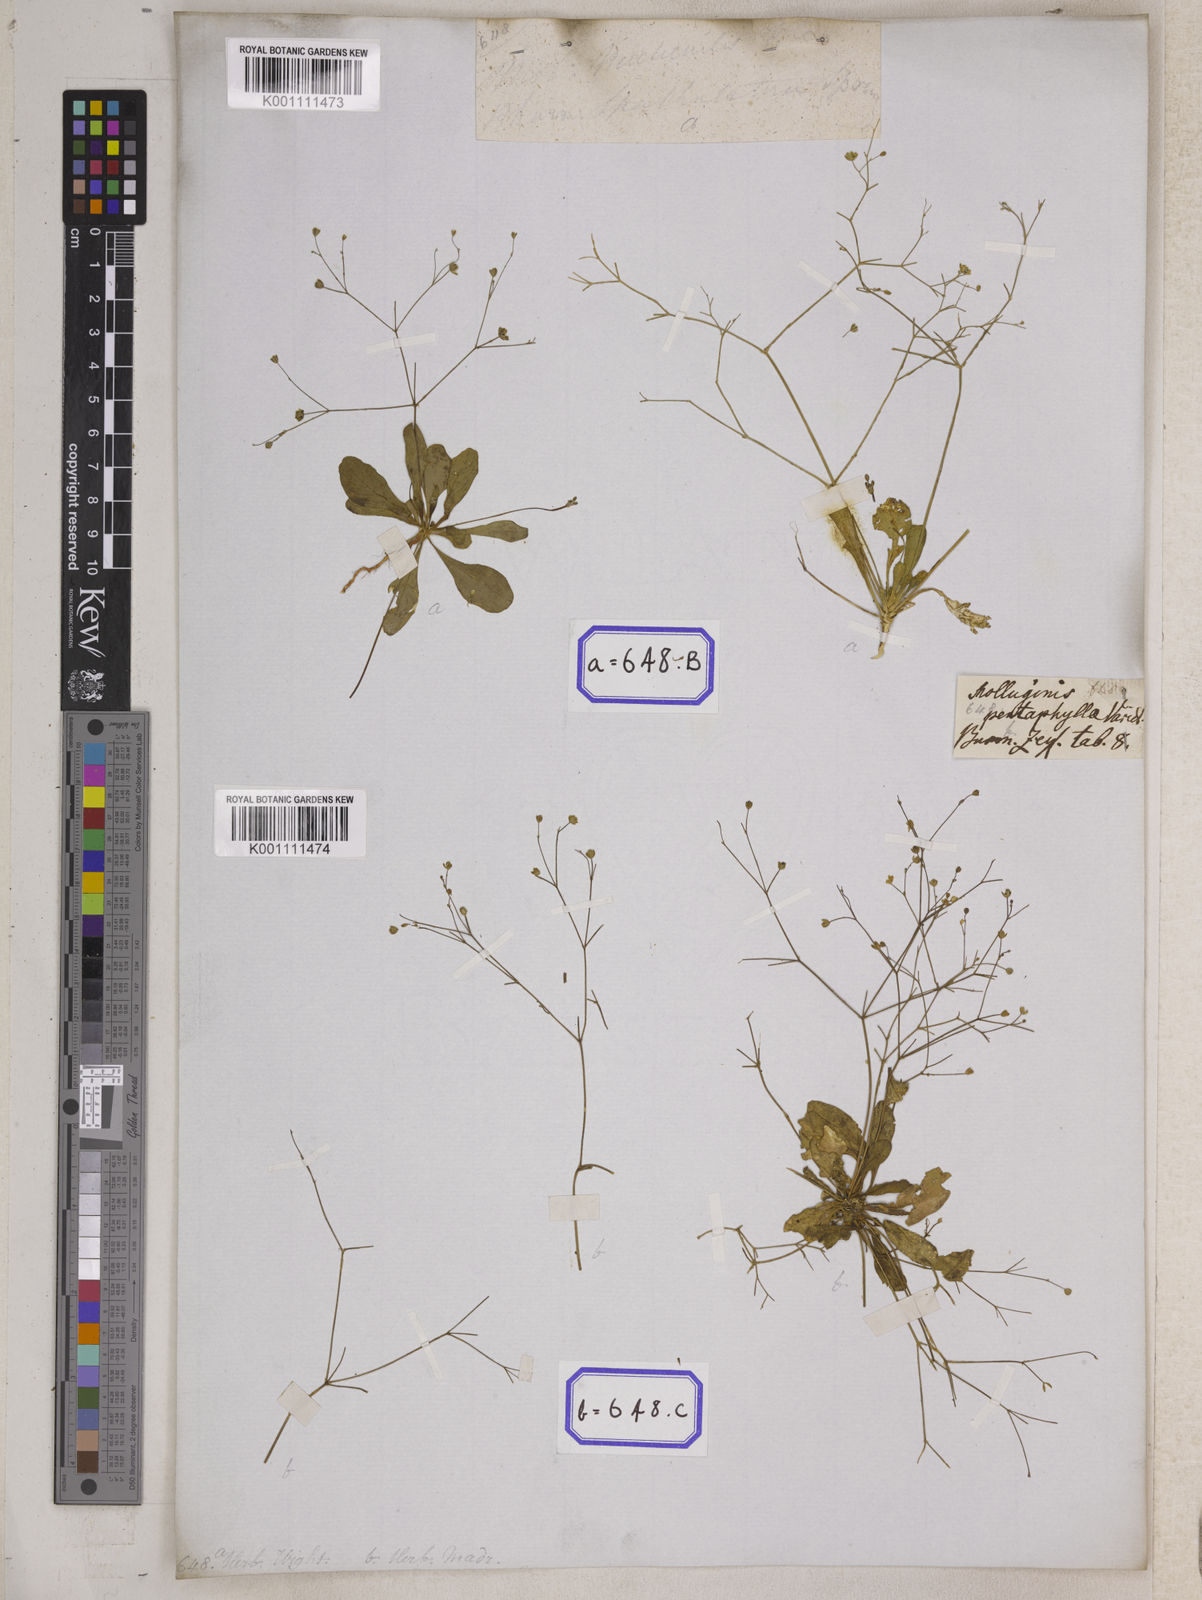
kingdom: Plantae
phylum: Tracheophyta
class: Magnoliopsida
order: Caryophyllales
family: Molluginaceae
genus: Paramollugo
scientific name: Paramollugo nudicaulis
